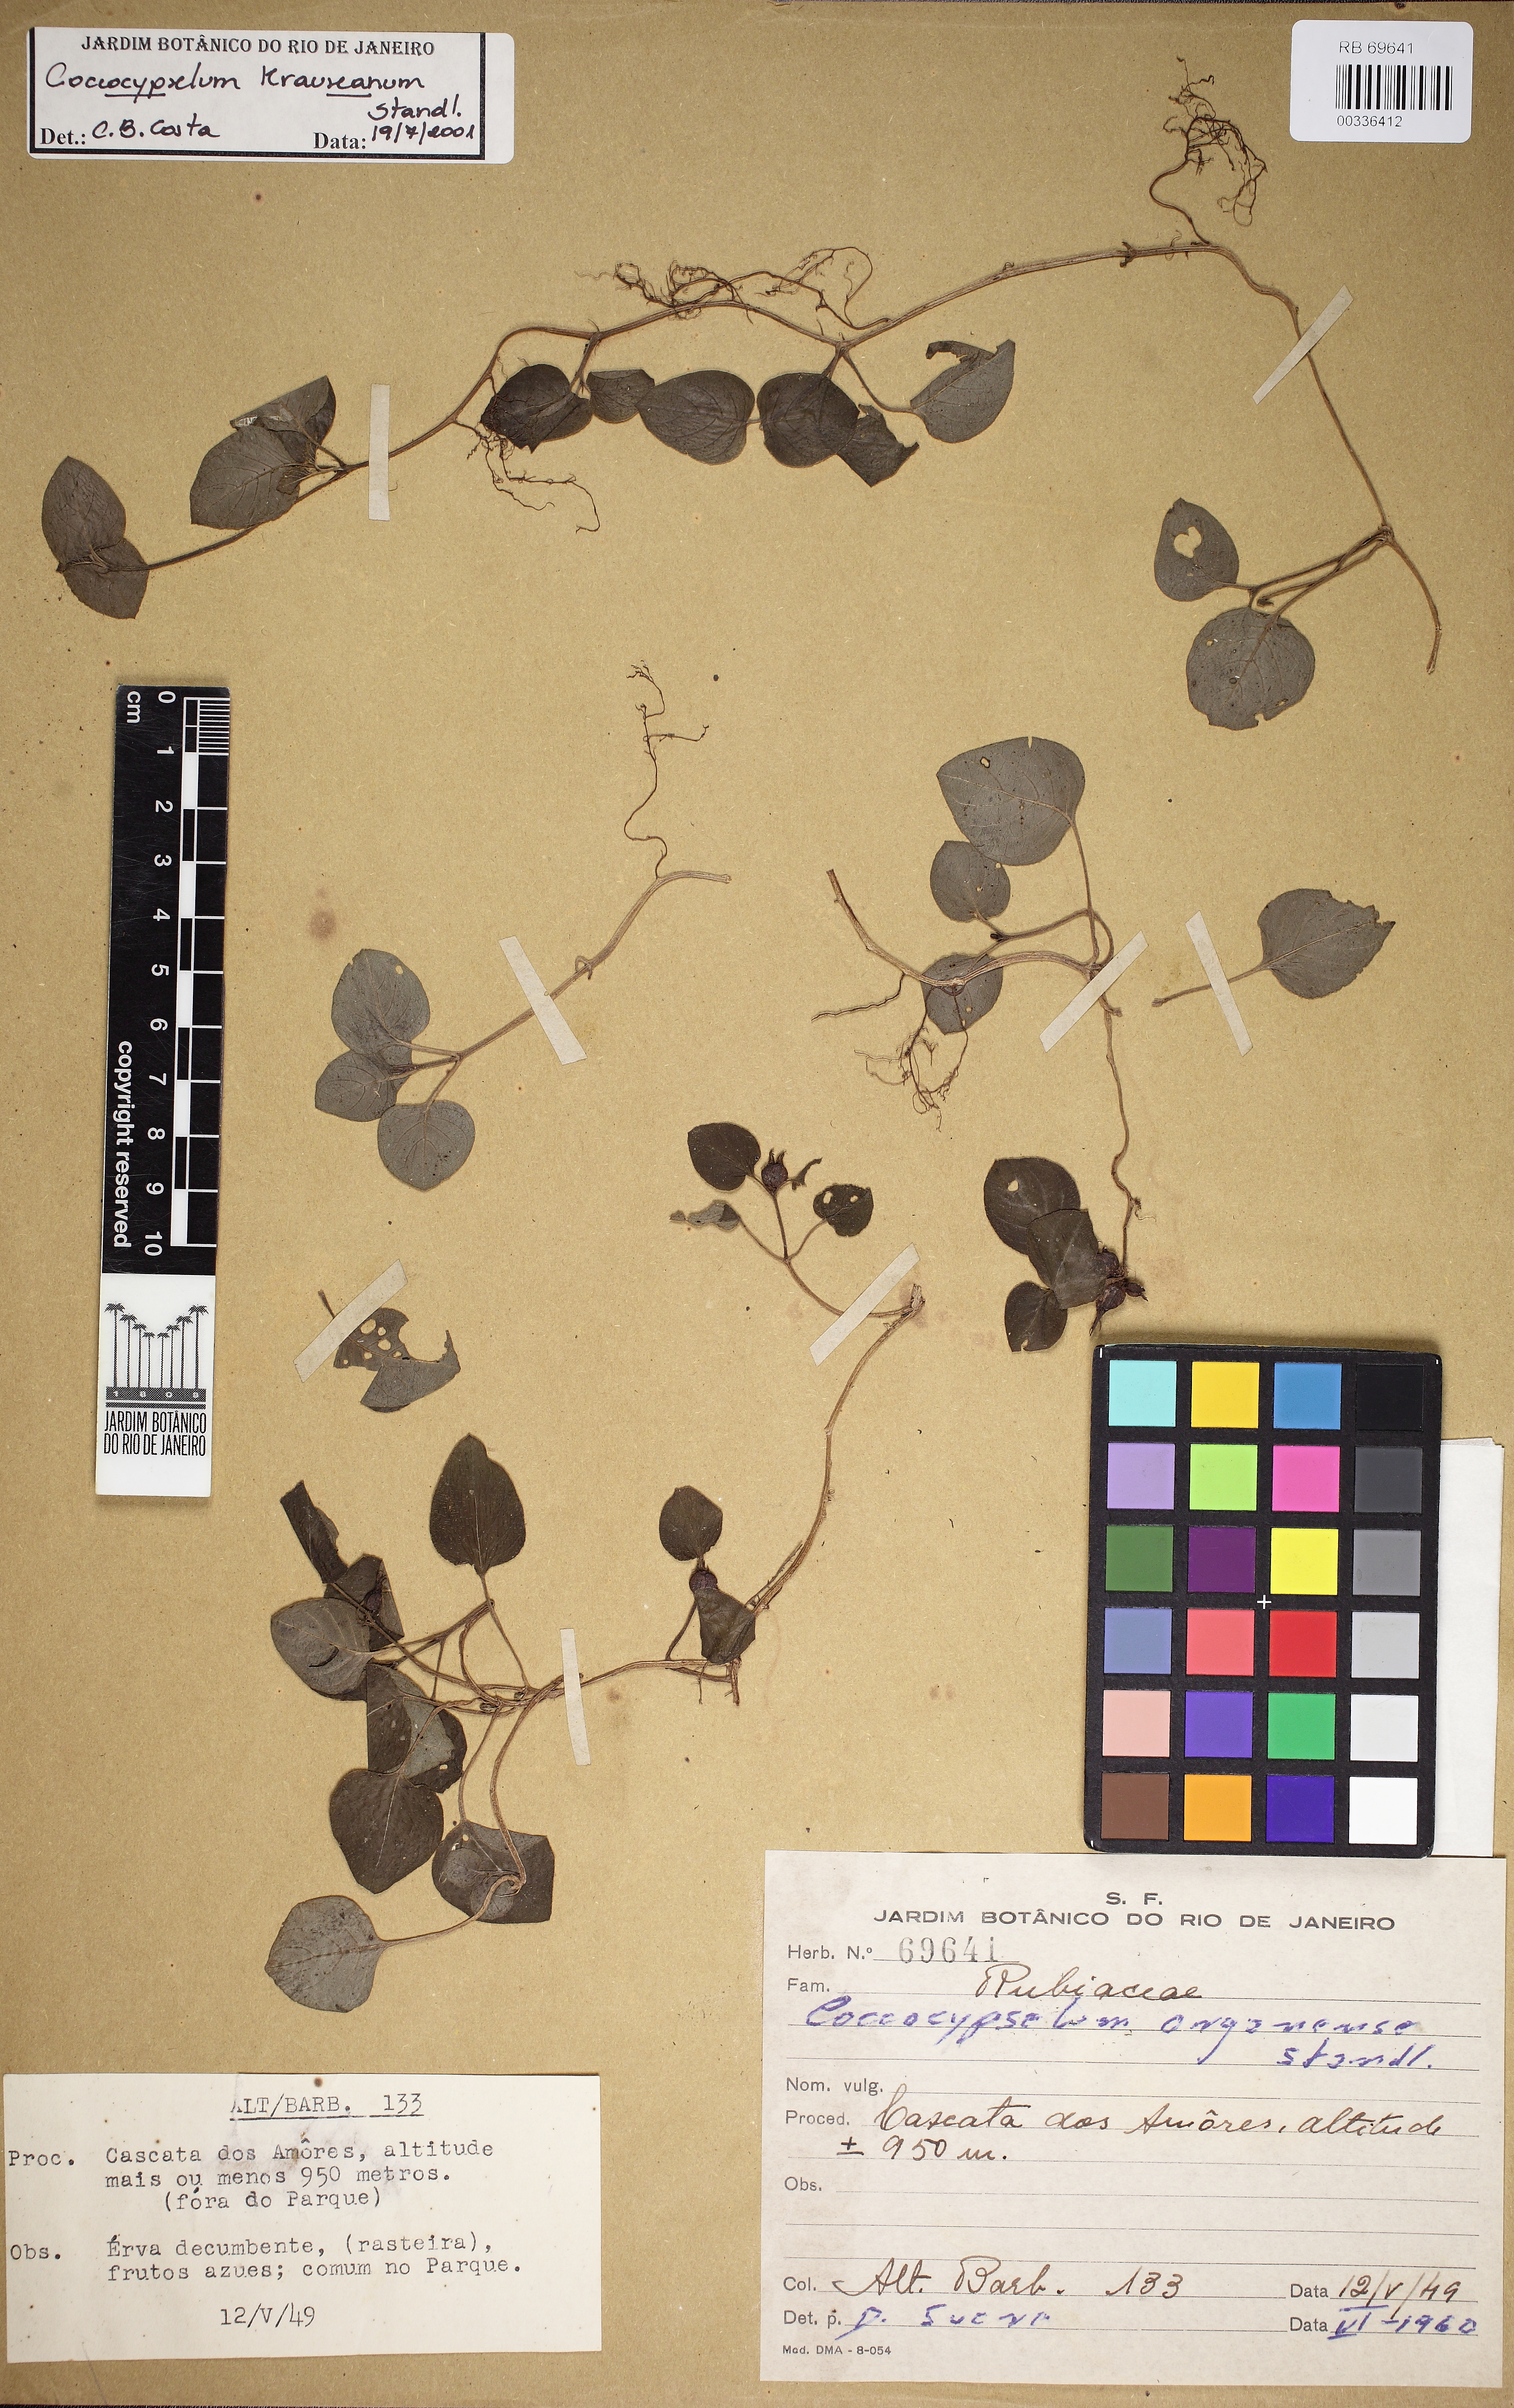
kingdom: Plantae
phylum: Tracheophyta
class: Magnoliopsida
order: Gentianales
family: Rubiaceae
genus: Coccocypselum
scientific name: Coccocypselum
